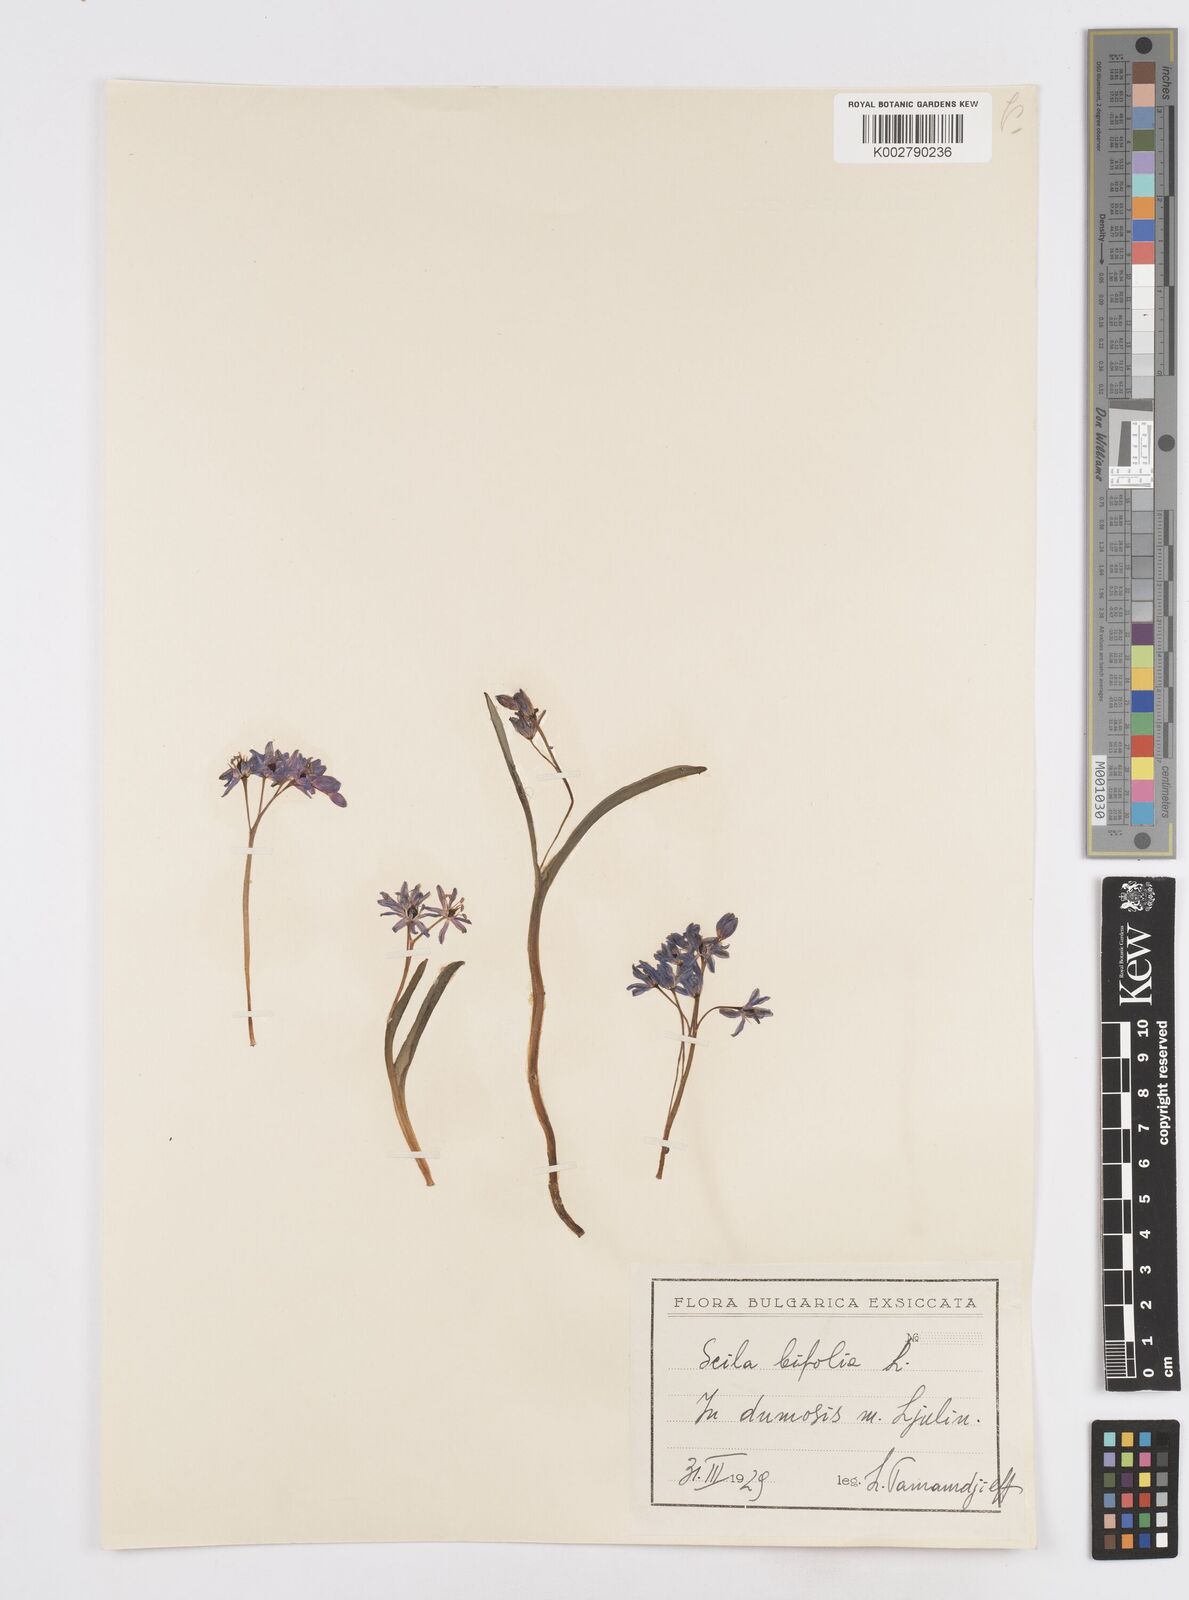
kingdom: Plantae
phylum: Tracheophyta
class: Liliopsida
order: Asparagales
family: Asparagaceae
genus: Scilla
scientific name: Scilla bifolia
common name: Alpine squill
